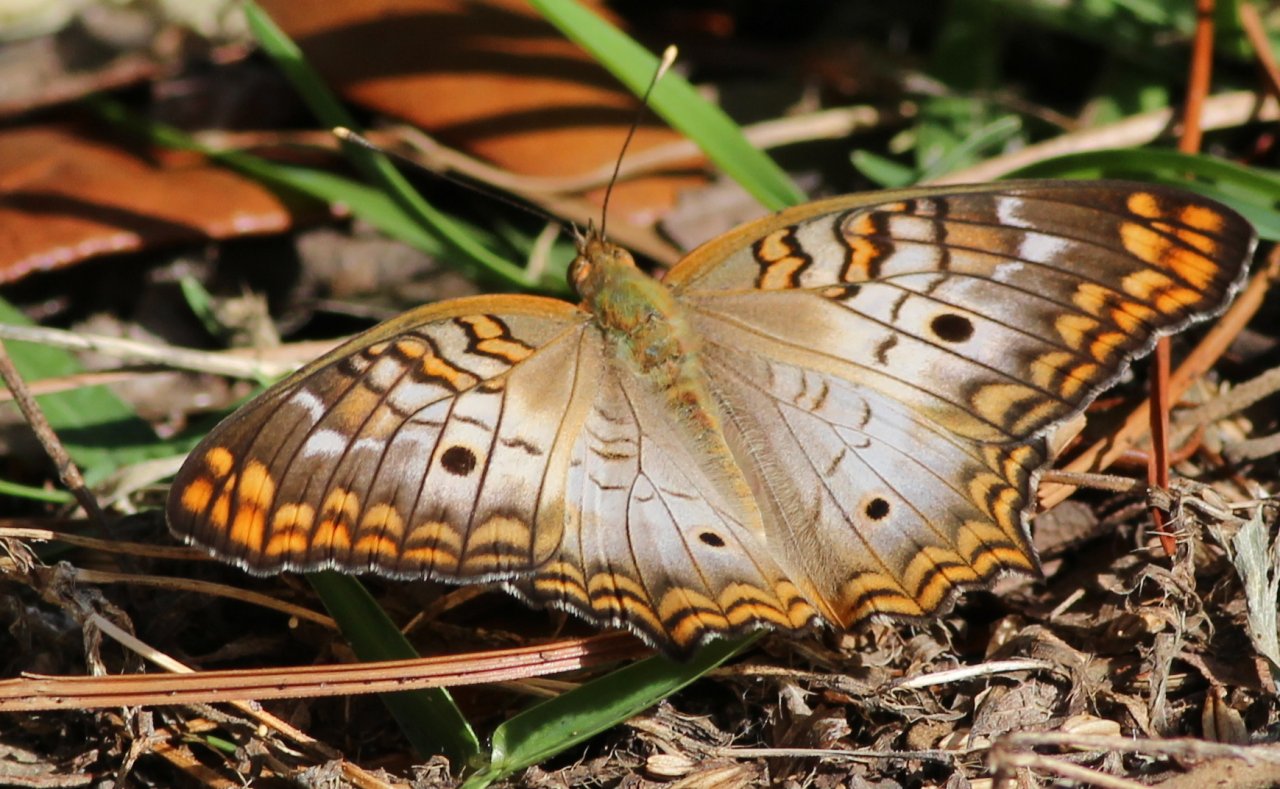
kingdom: Animalia
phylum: Arthropoda
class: Insecta
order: Lepidoptera
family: Nymphalidae
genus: Anartia
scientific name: Anartia jatrophae
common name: White Peacock
